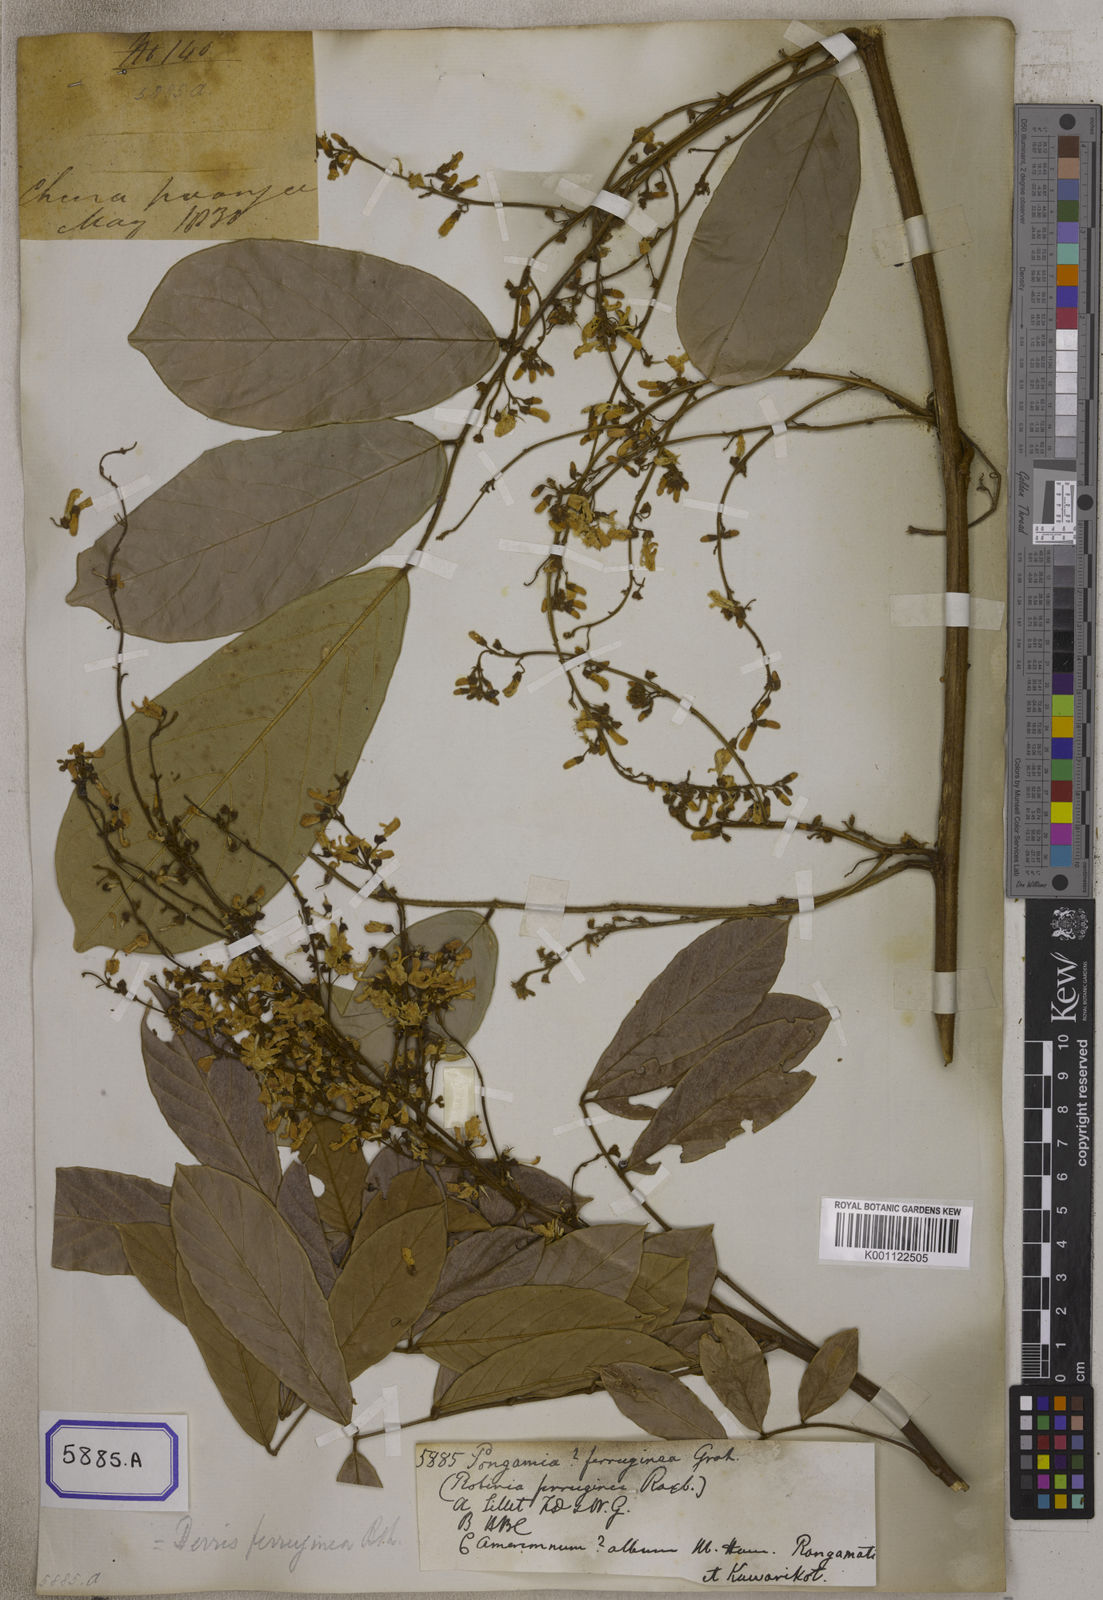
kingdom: Plantae
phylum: Tracheophyta
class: Magnoliopsida
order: Fabales
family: Fabaceae
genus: Derris
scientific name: Derris ferruginea
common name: Indian tubaroot
